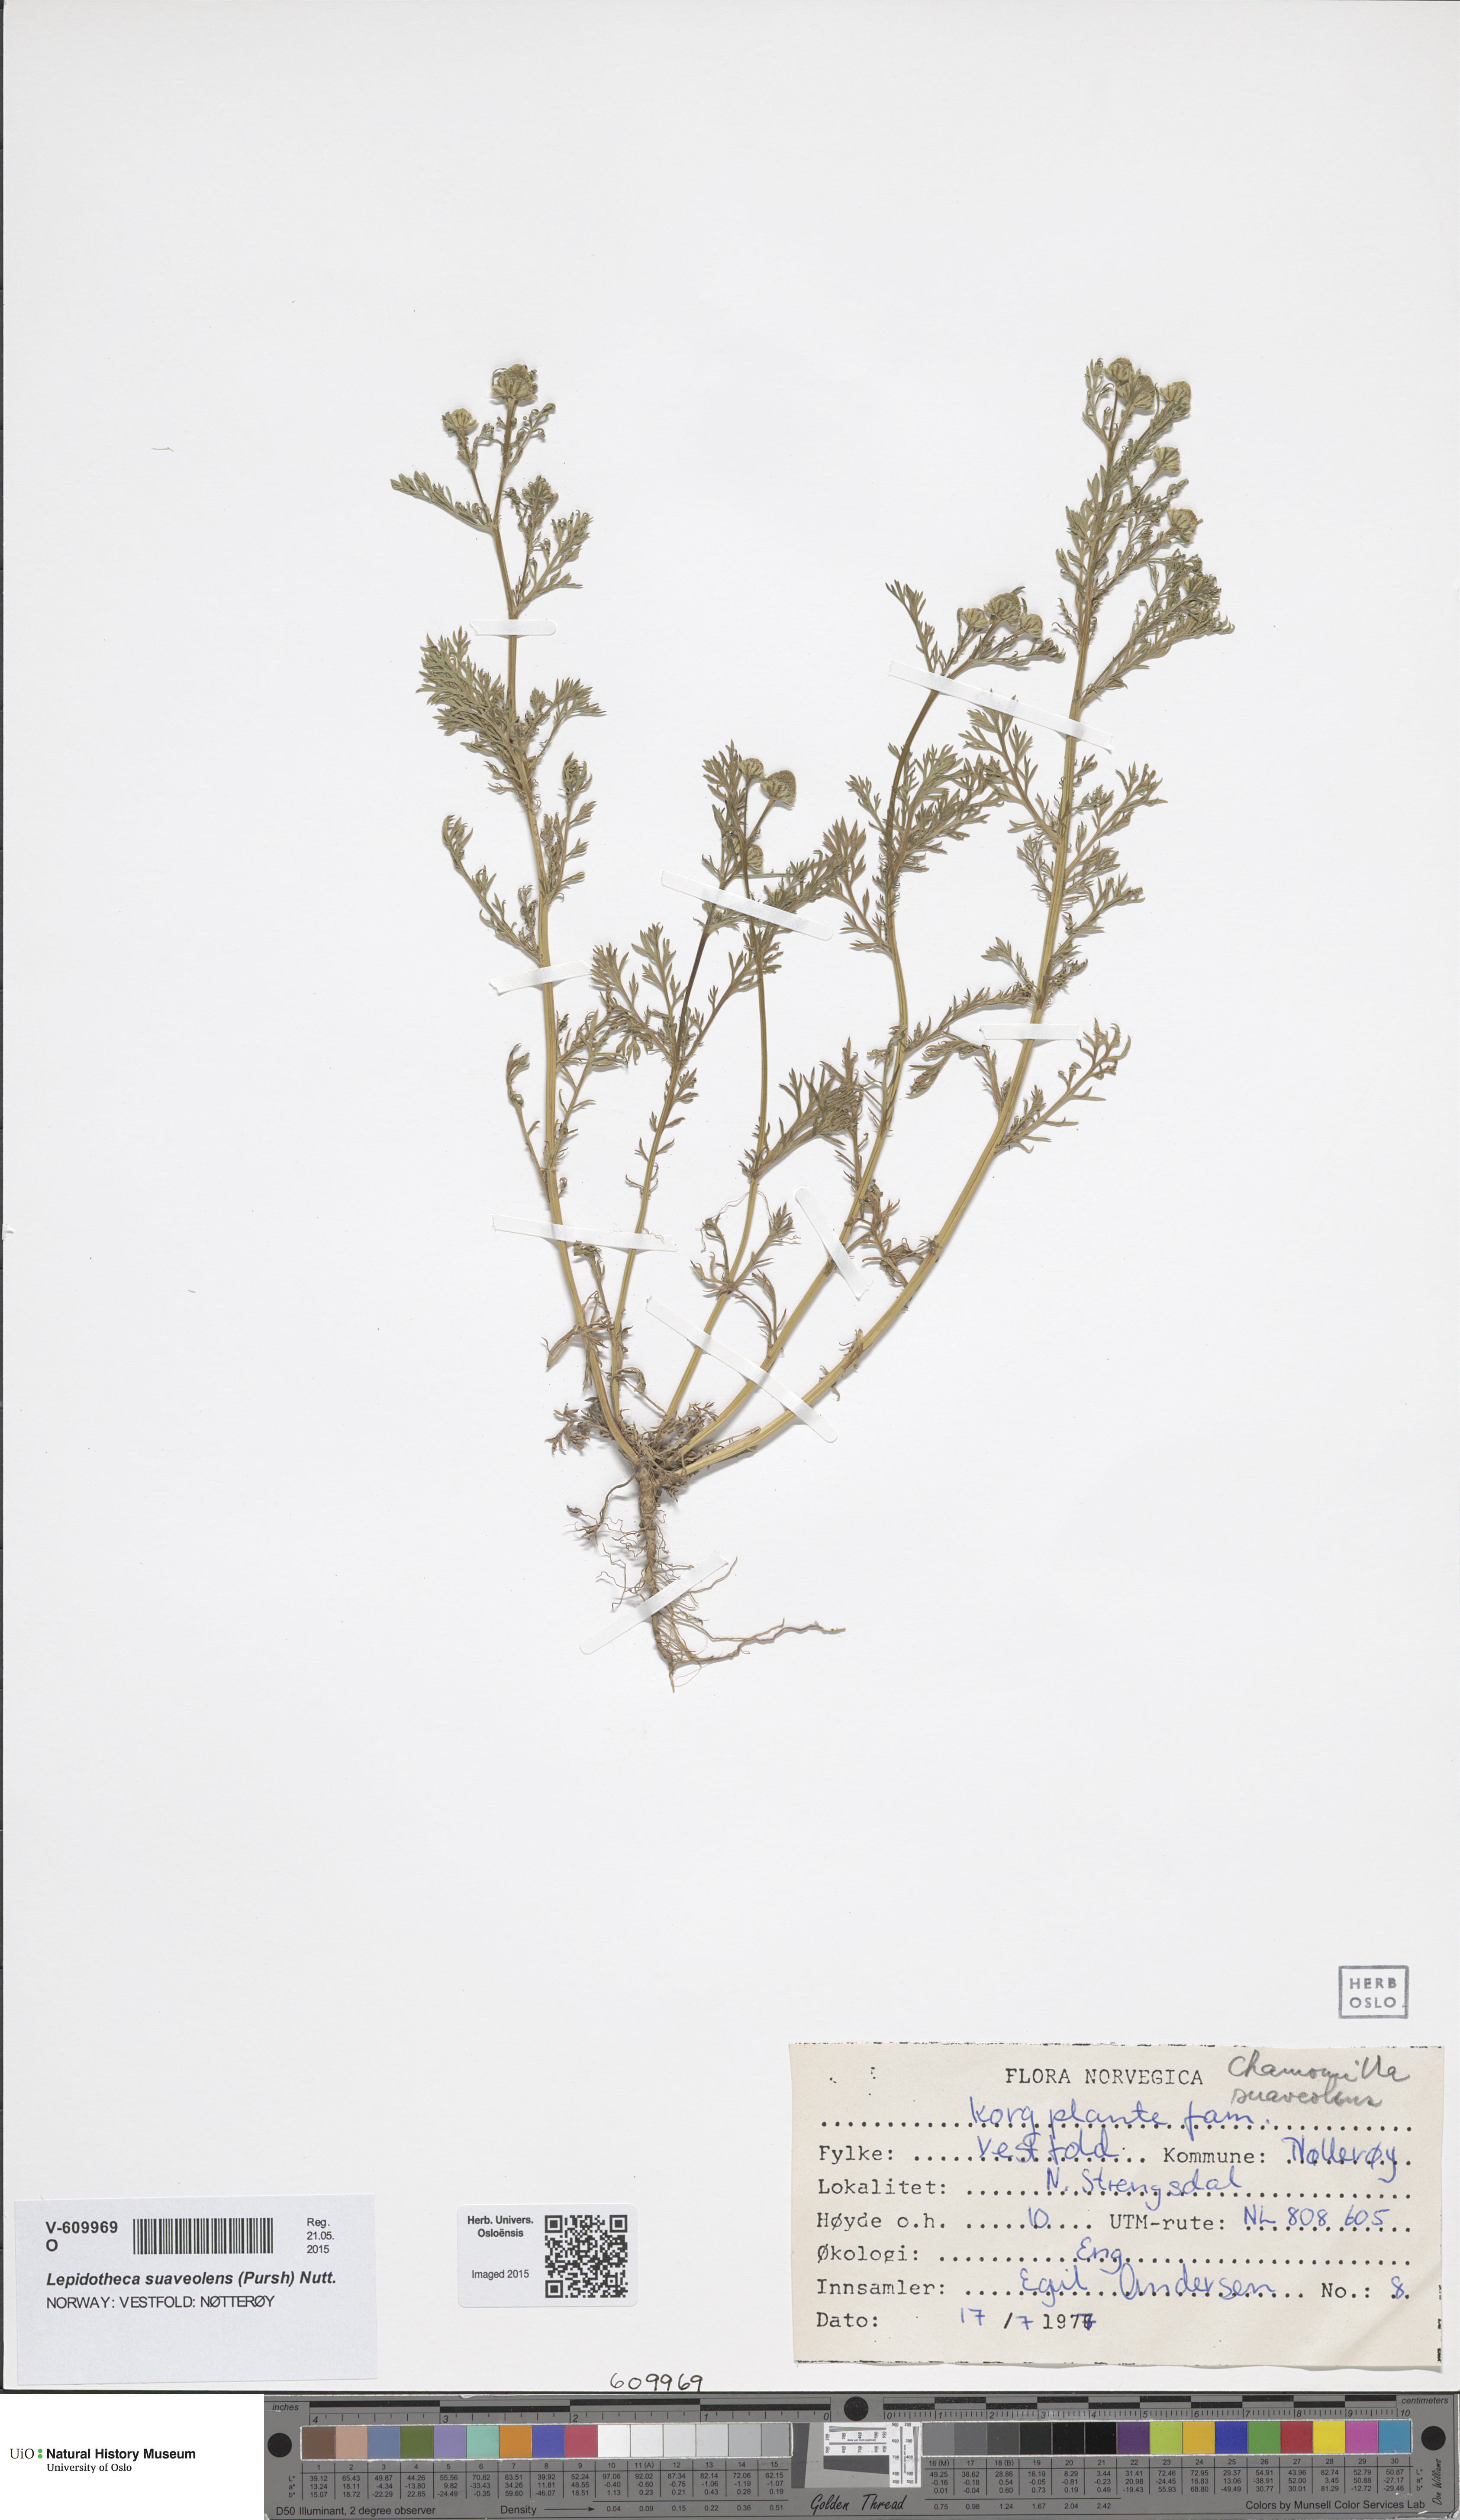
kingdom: Plantae
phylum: Tracheophyta
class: Magnoliopsida
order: Asterales
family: Asteraceae
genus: Matricaria
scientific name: Matricaria discoidea
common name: Disc mayweed
